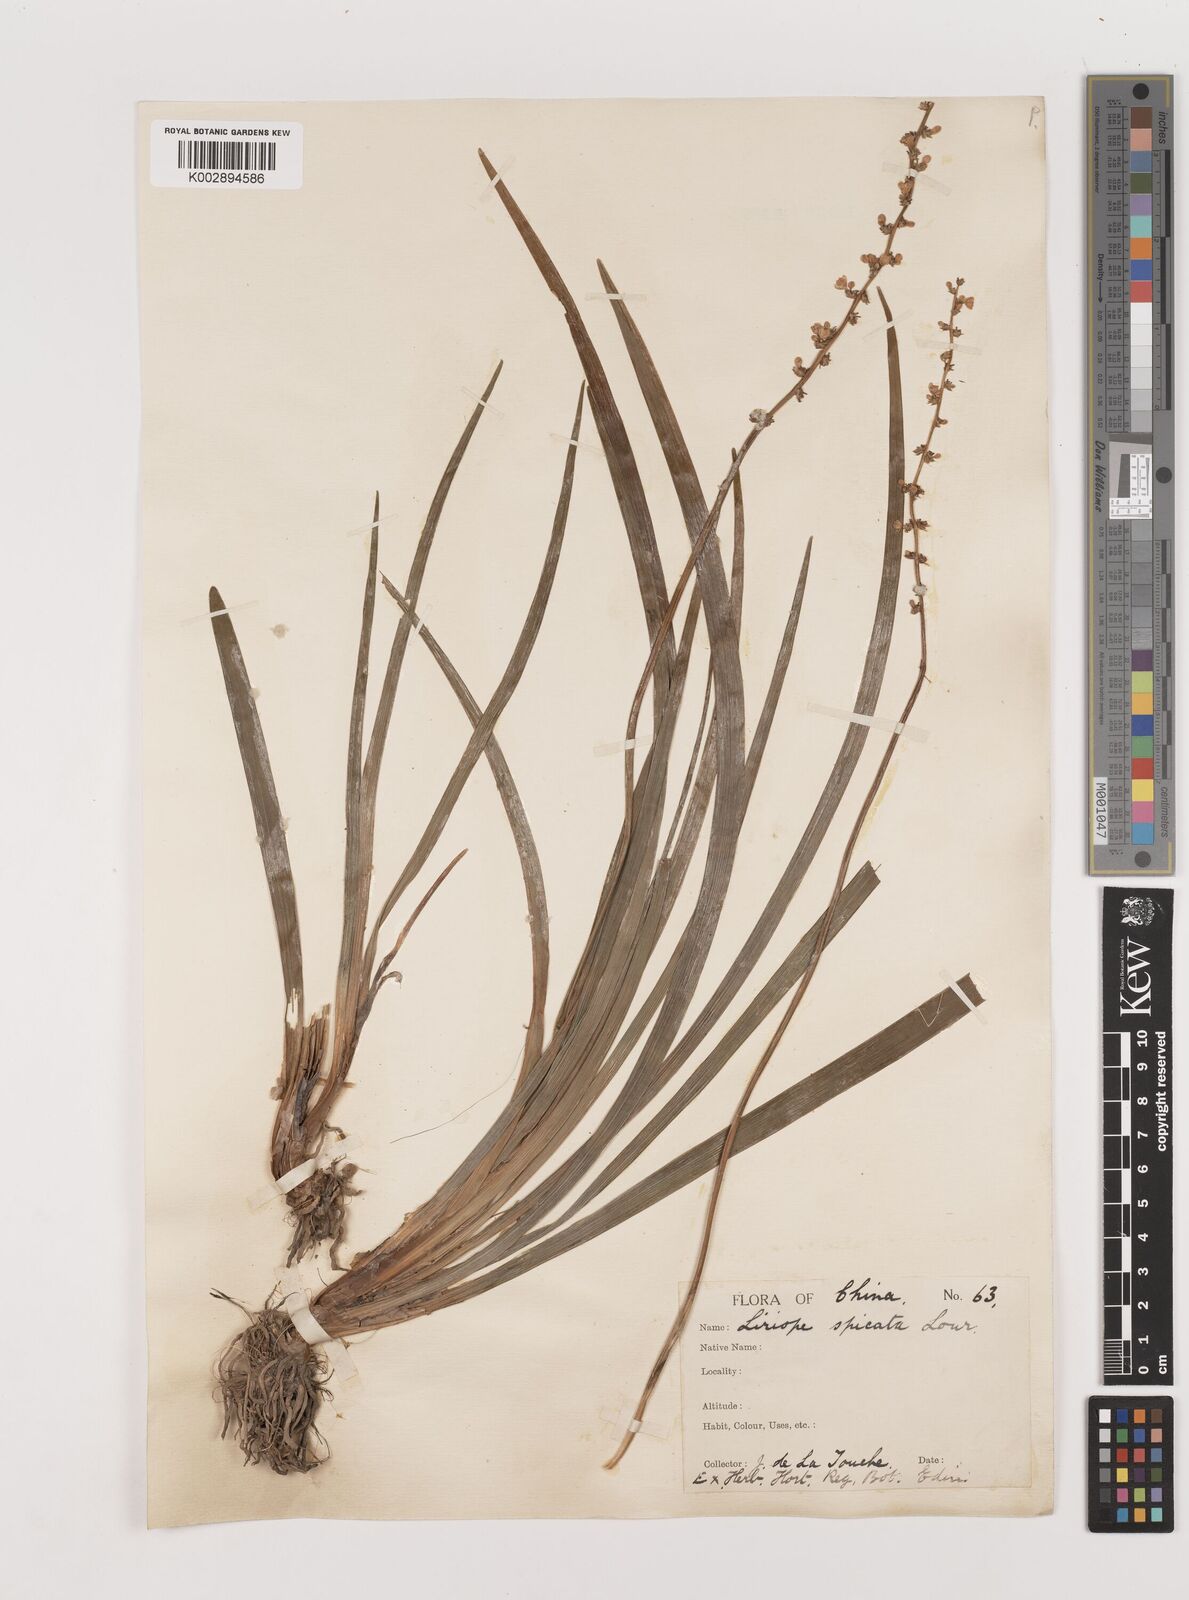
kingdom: Plantae
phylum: Tracheophyta
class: Liliopsida
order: Asparagales
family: Asparagaceae
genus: Liriope
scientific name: Liriope muscari
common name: Big blue lilyturf
